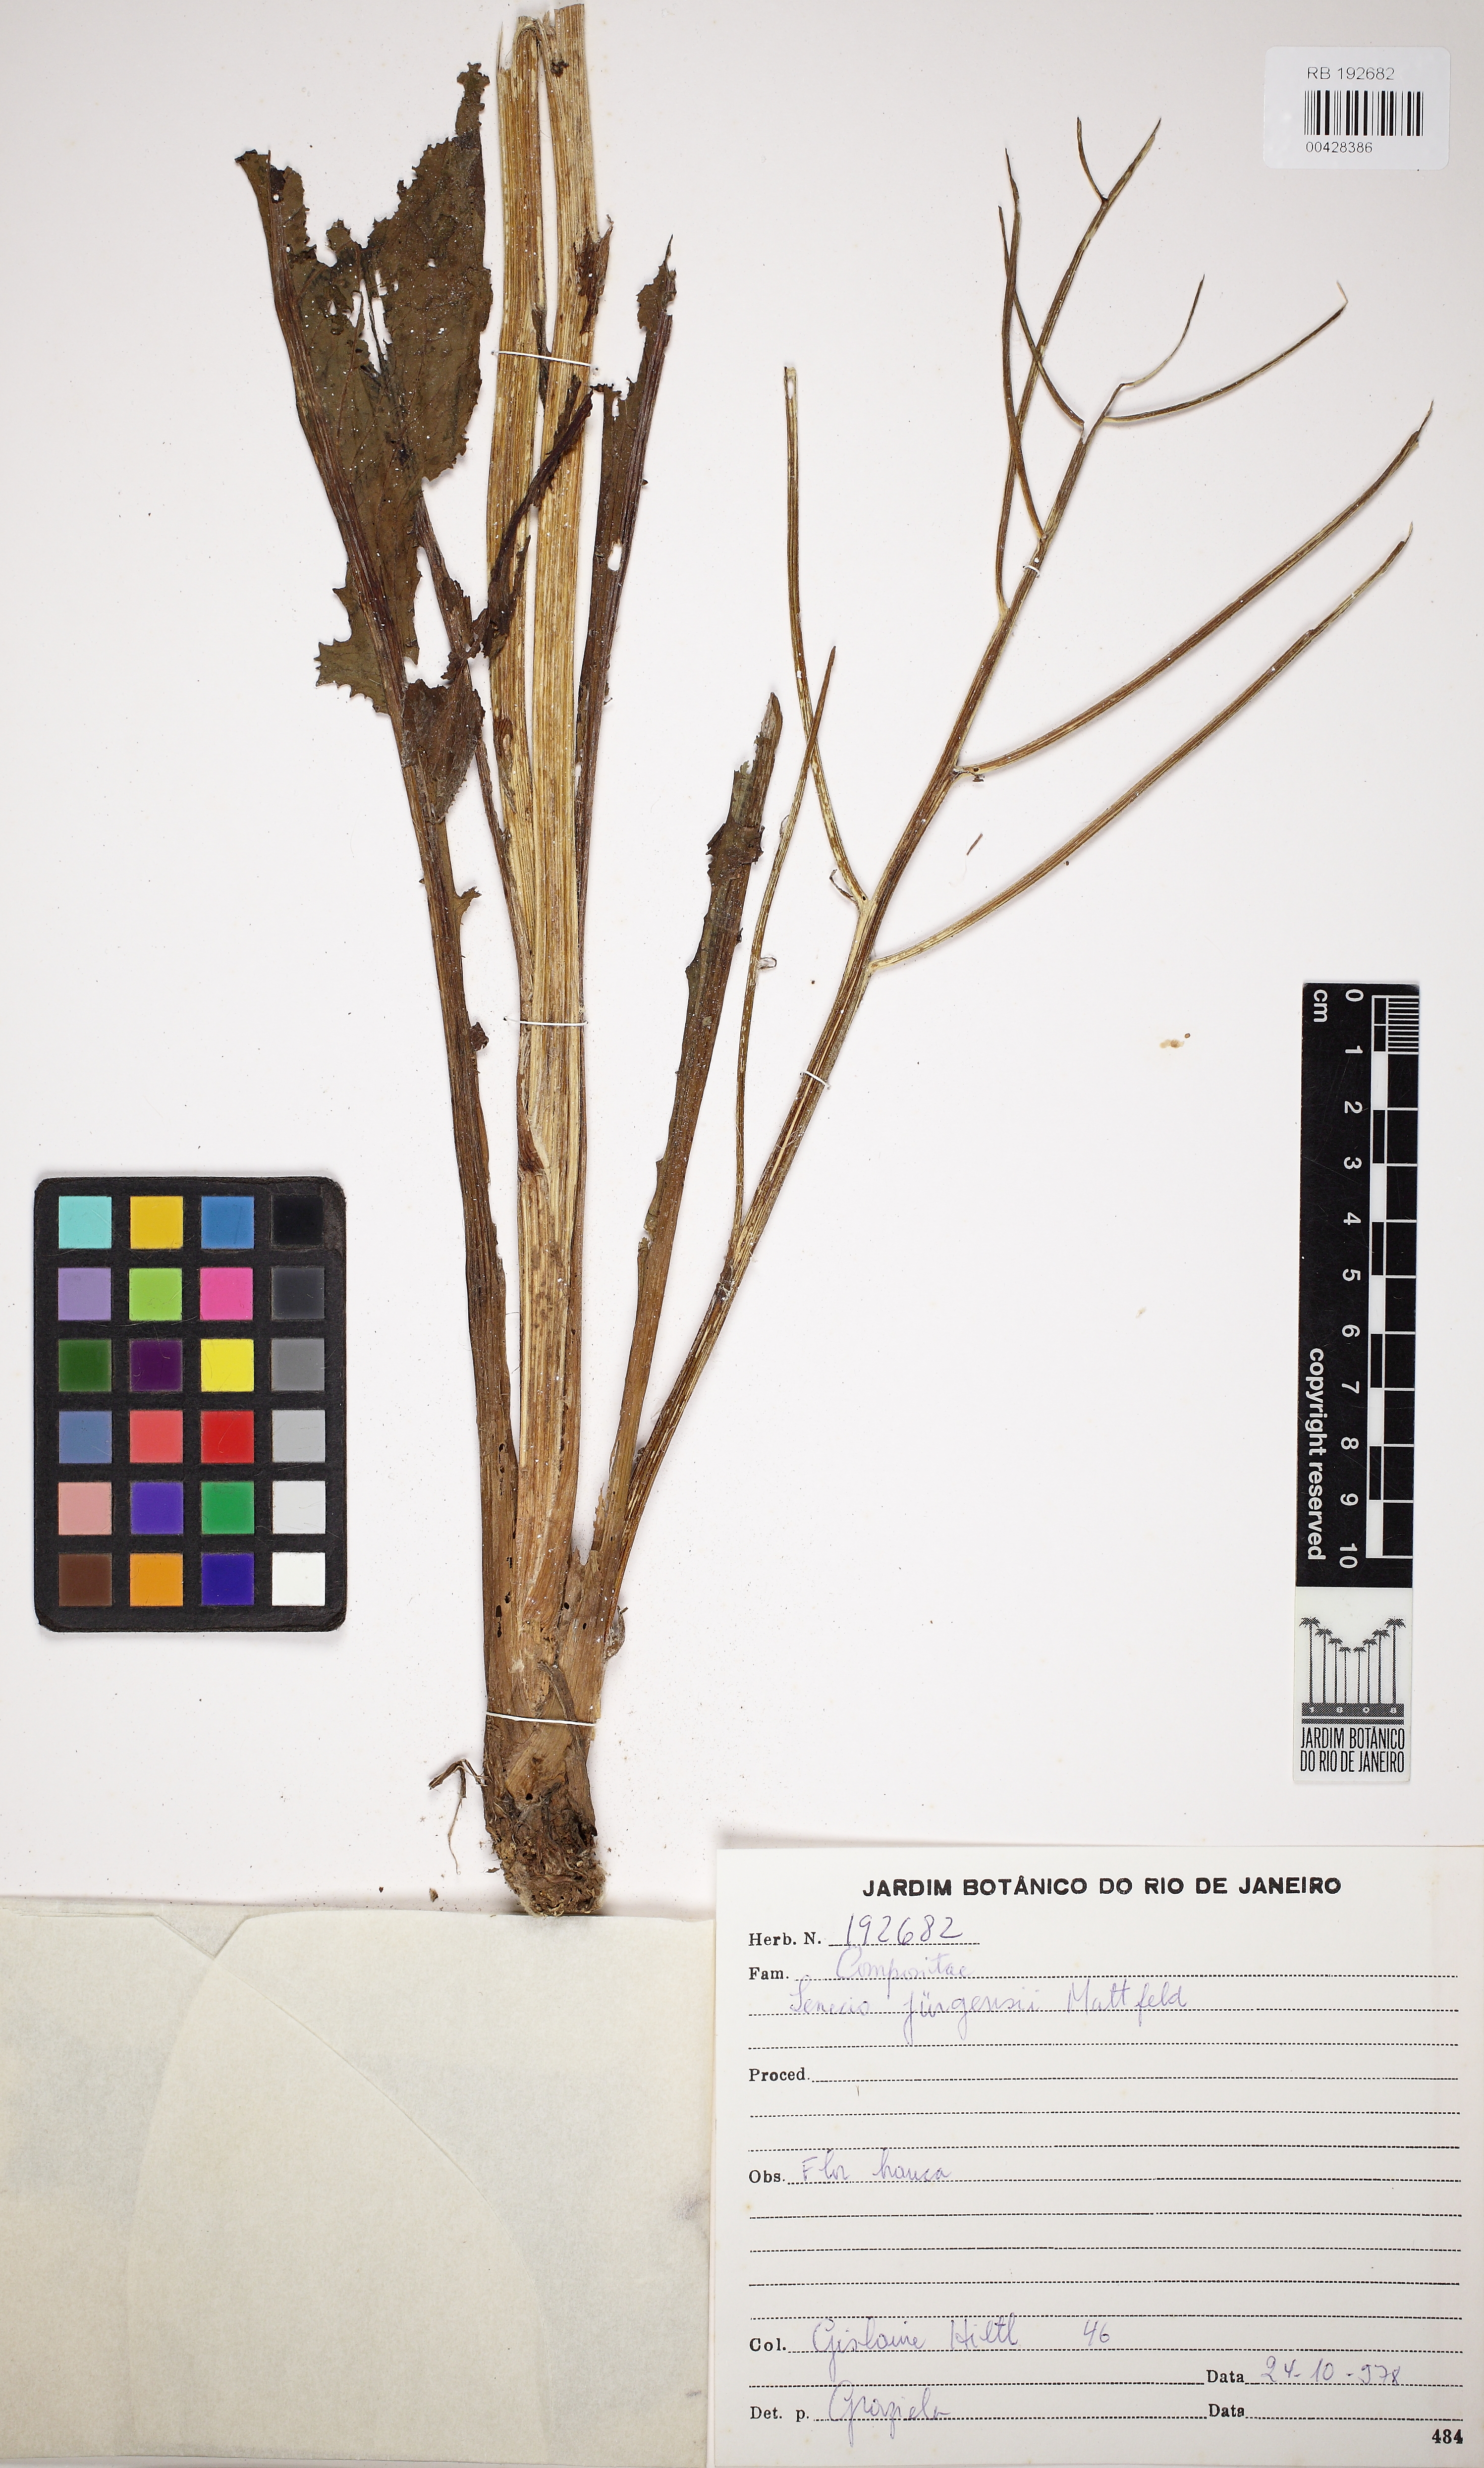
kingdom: Plantae
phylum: Tracheophyta
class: Magnoliopsida
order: Asterales
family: Asteraceae
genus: Senecio
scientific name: Senecio juergensii
